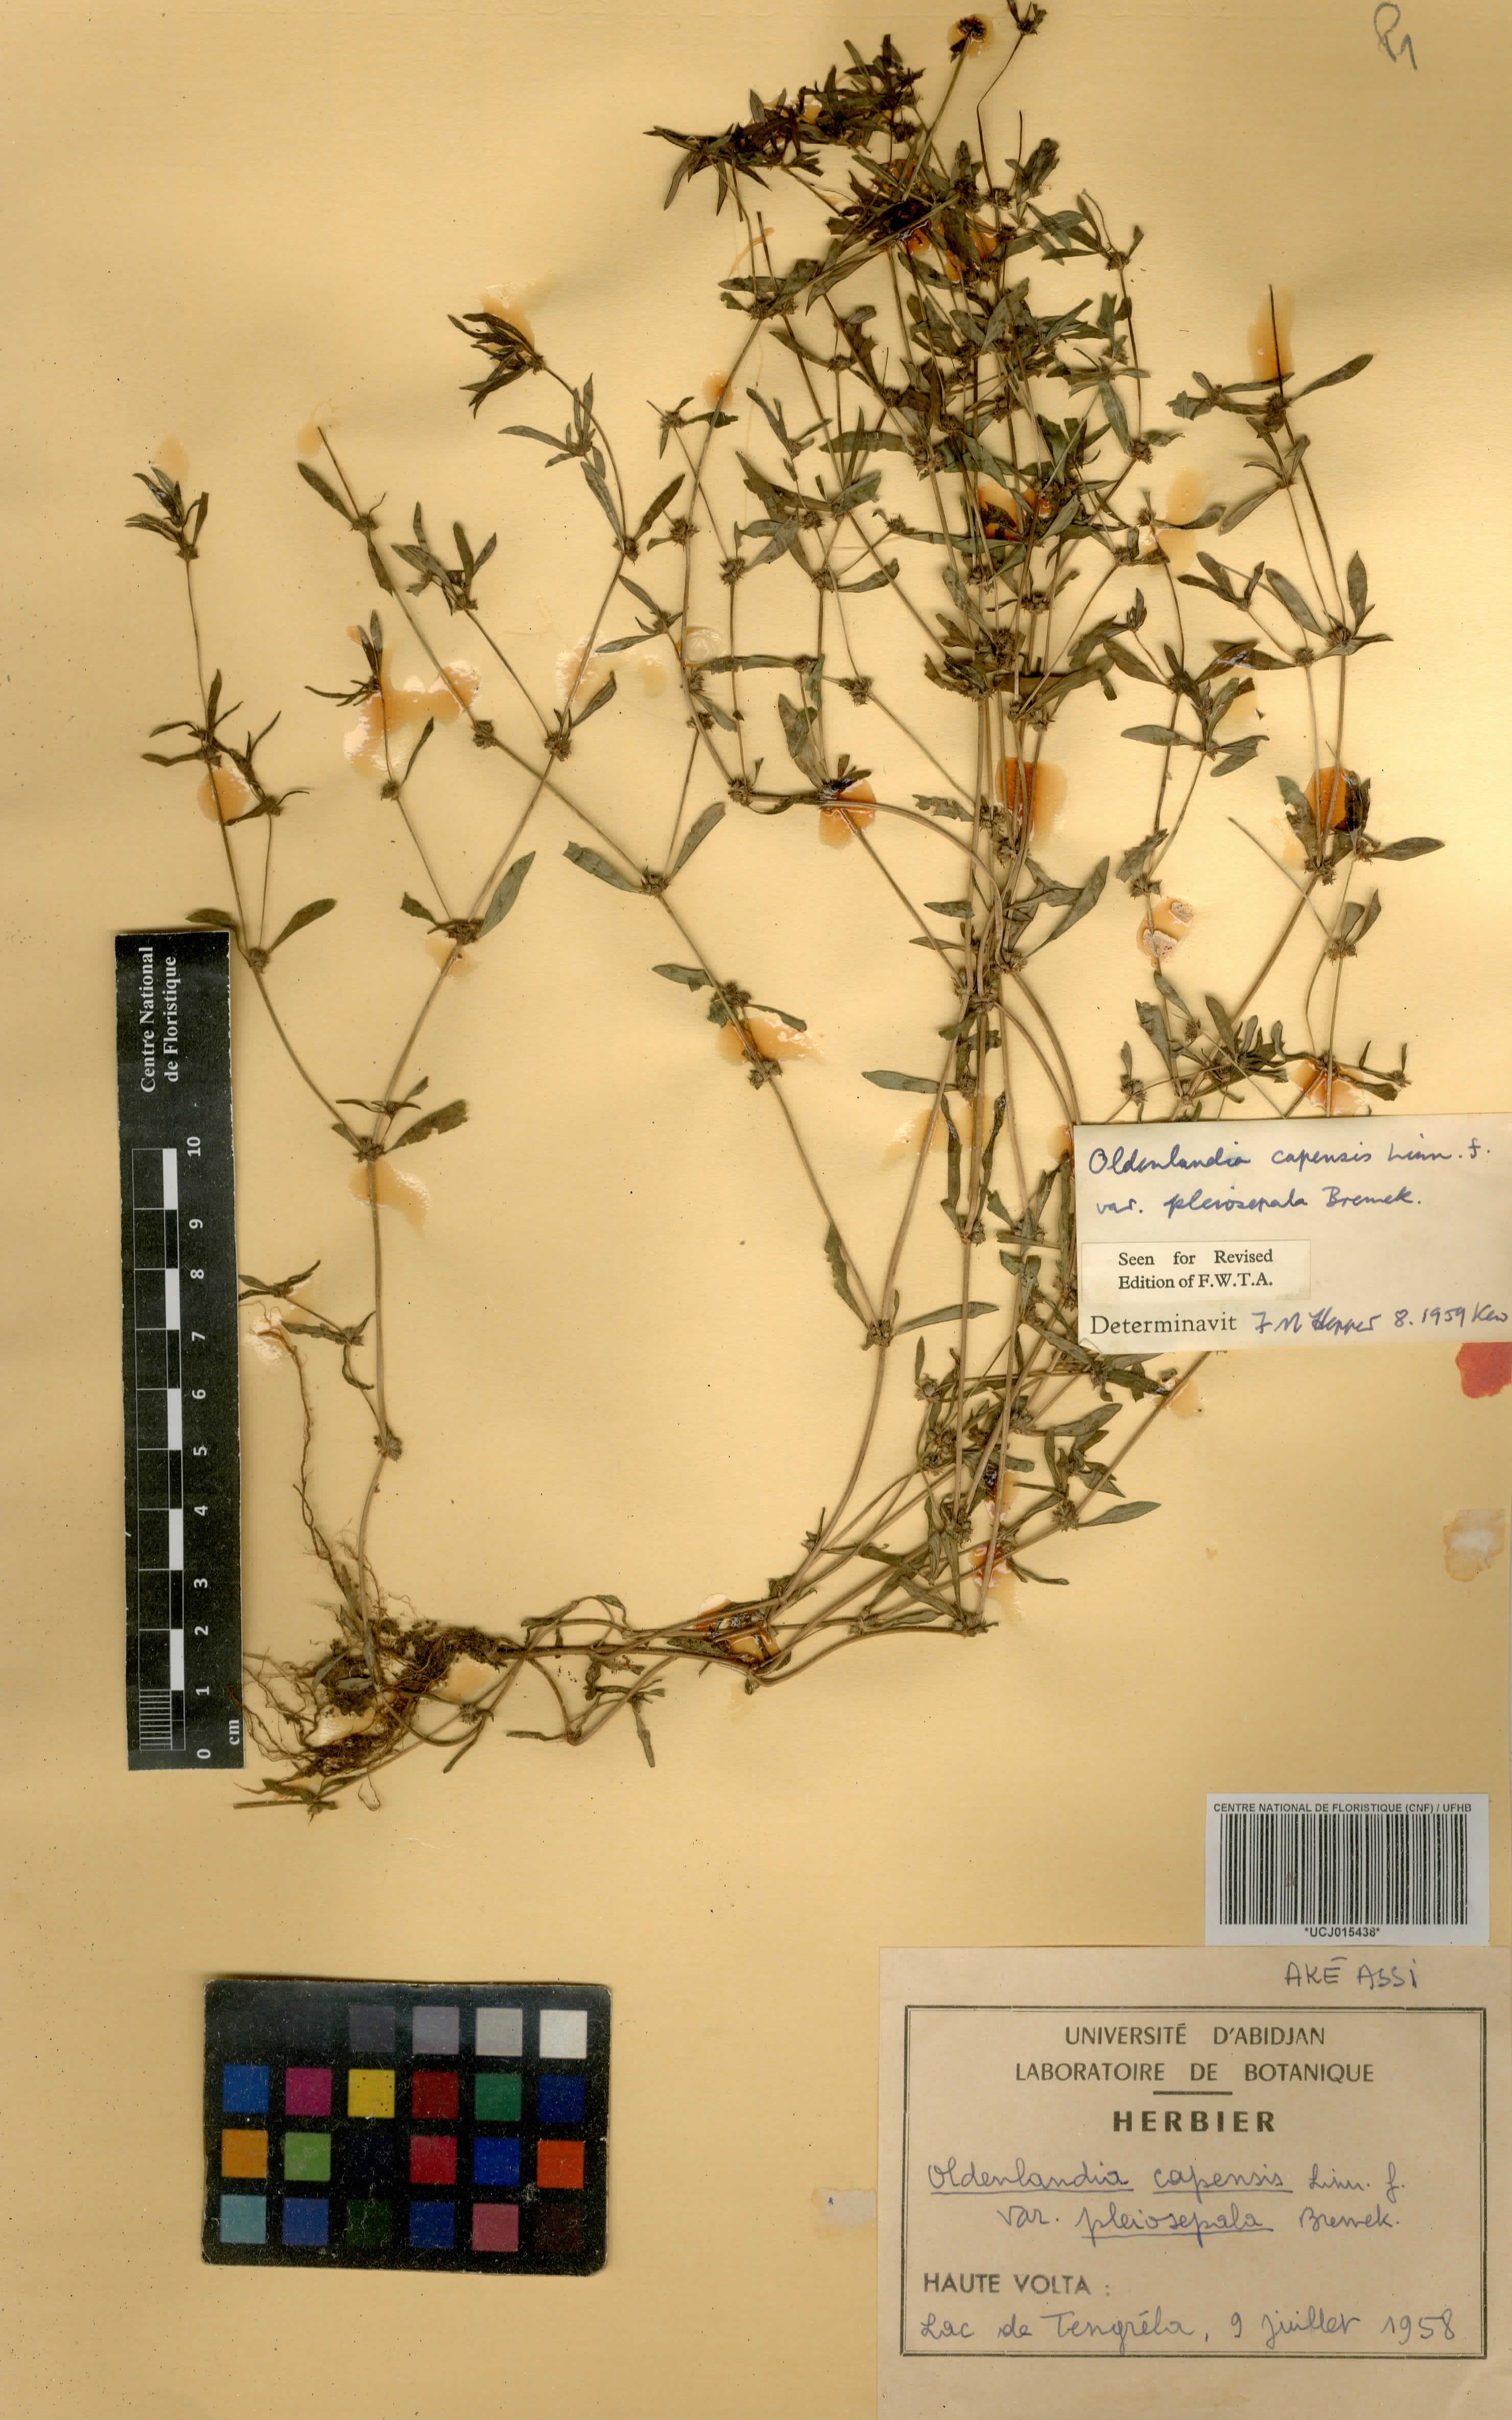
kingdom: Plantae
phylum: Tracheophyta
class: Magnoliopsida
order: Gentianales
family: Rubiaceae
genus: Oldenlandia
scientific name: Oldenlandia capensis
